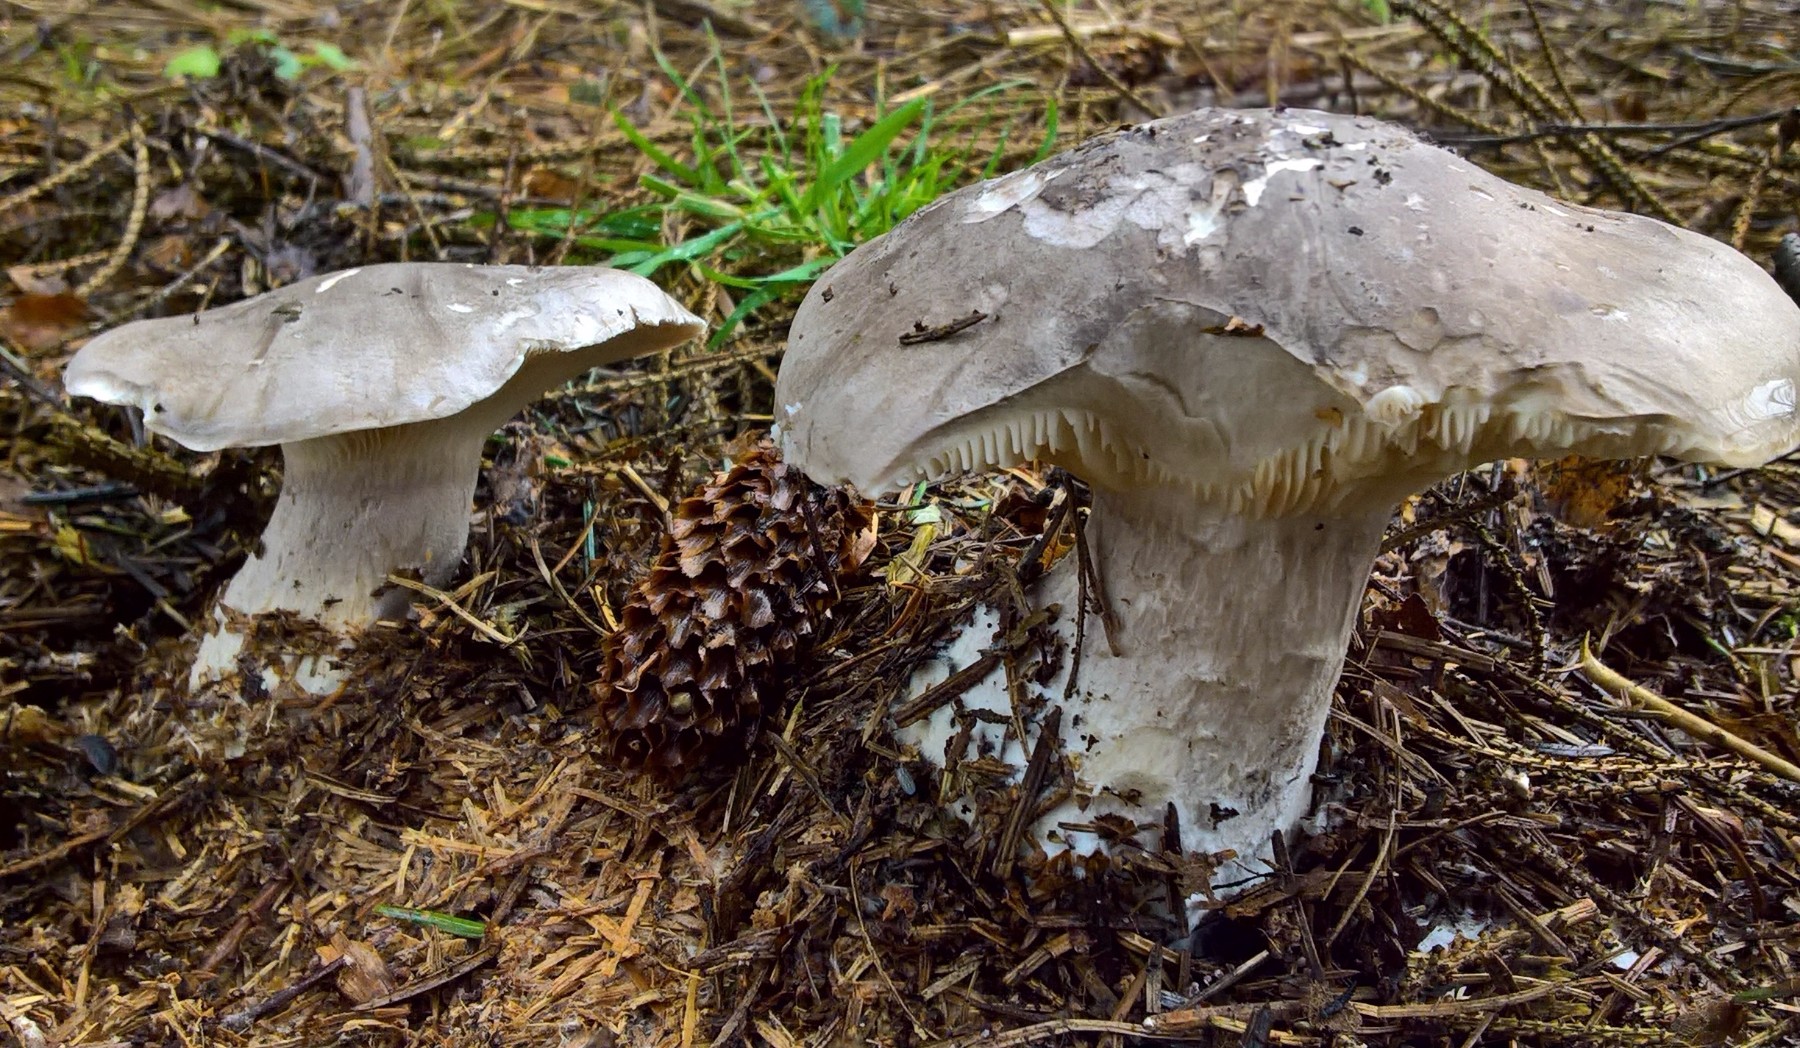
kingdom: Fungi
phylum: Basidiomycota
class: Agaricomycetes
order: Agaricales
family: Tricholomataceae
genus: Clitocybe
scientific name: Clitocybe nebularis
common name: tåge-tragthat
